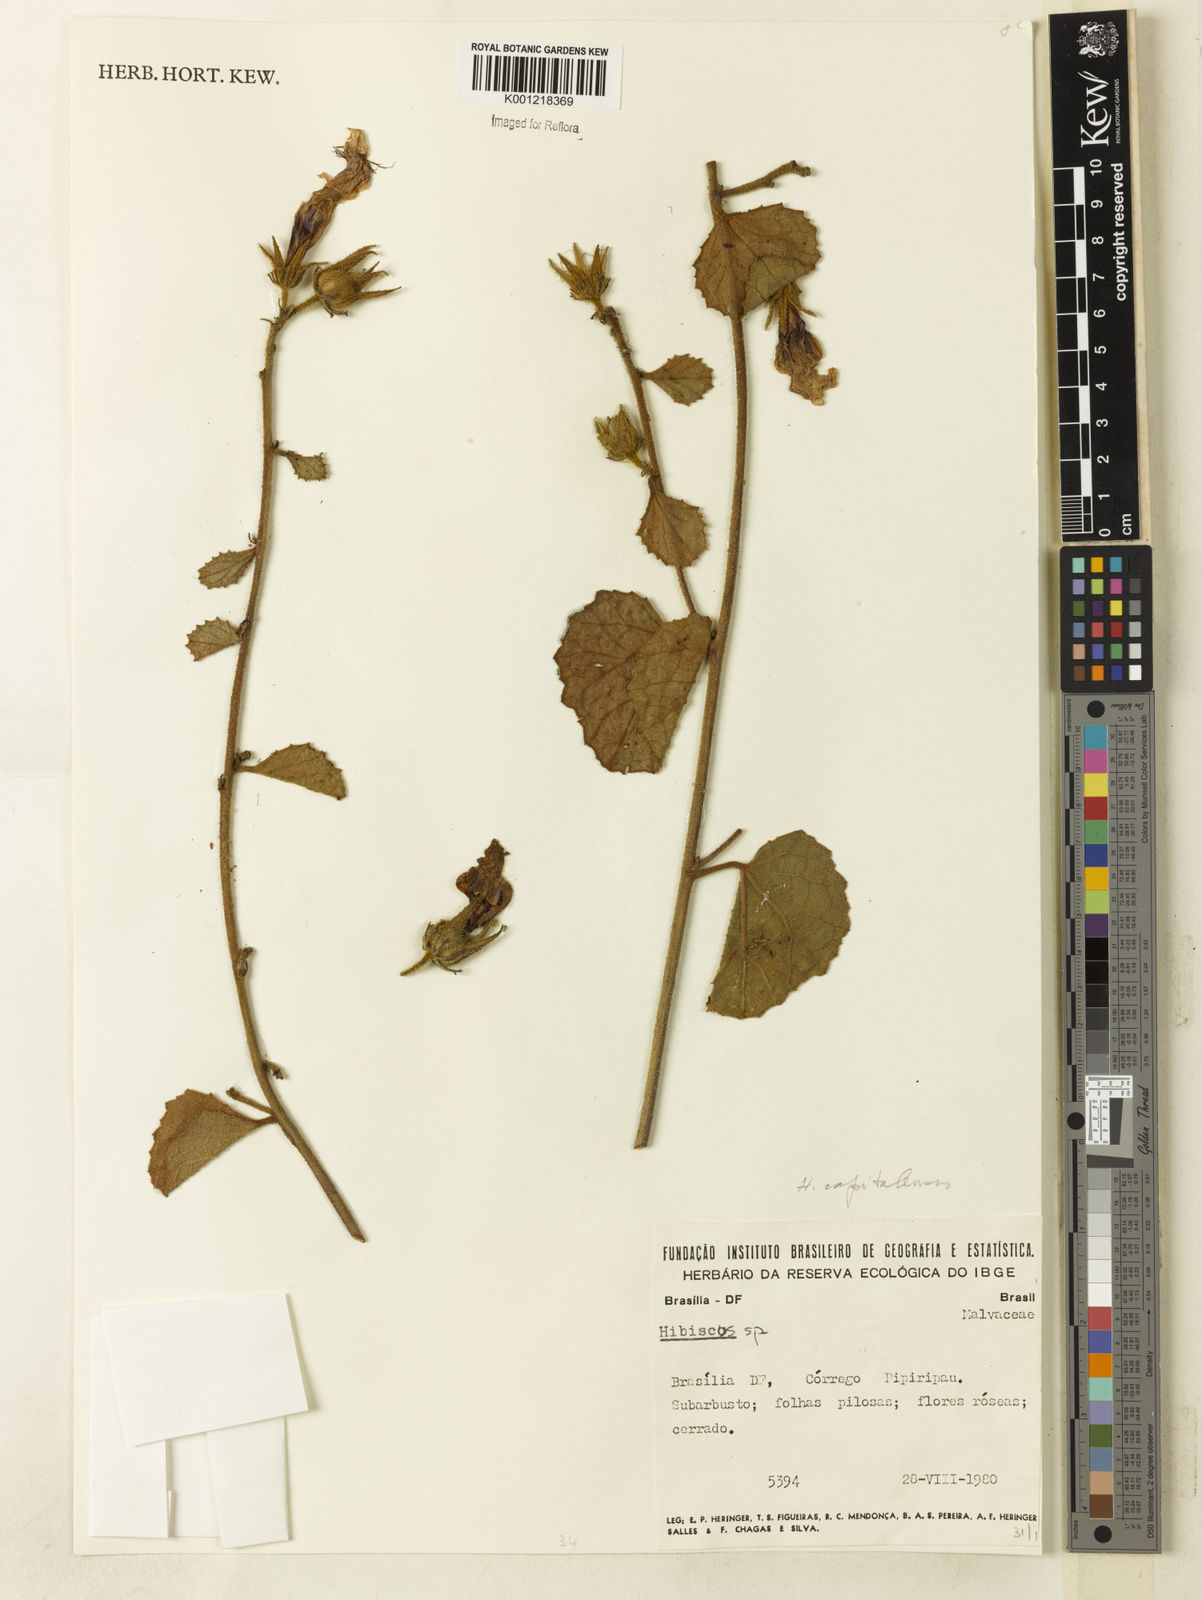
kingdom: Plantae
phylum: Tracheophyta
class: Magnoliopsida
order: Malvales
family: Malvaceae
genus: Hibiscus
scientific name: Hibiscus
